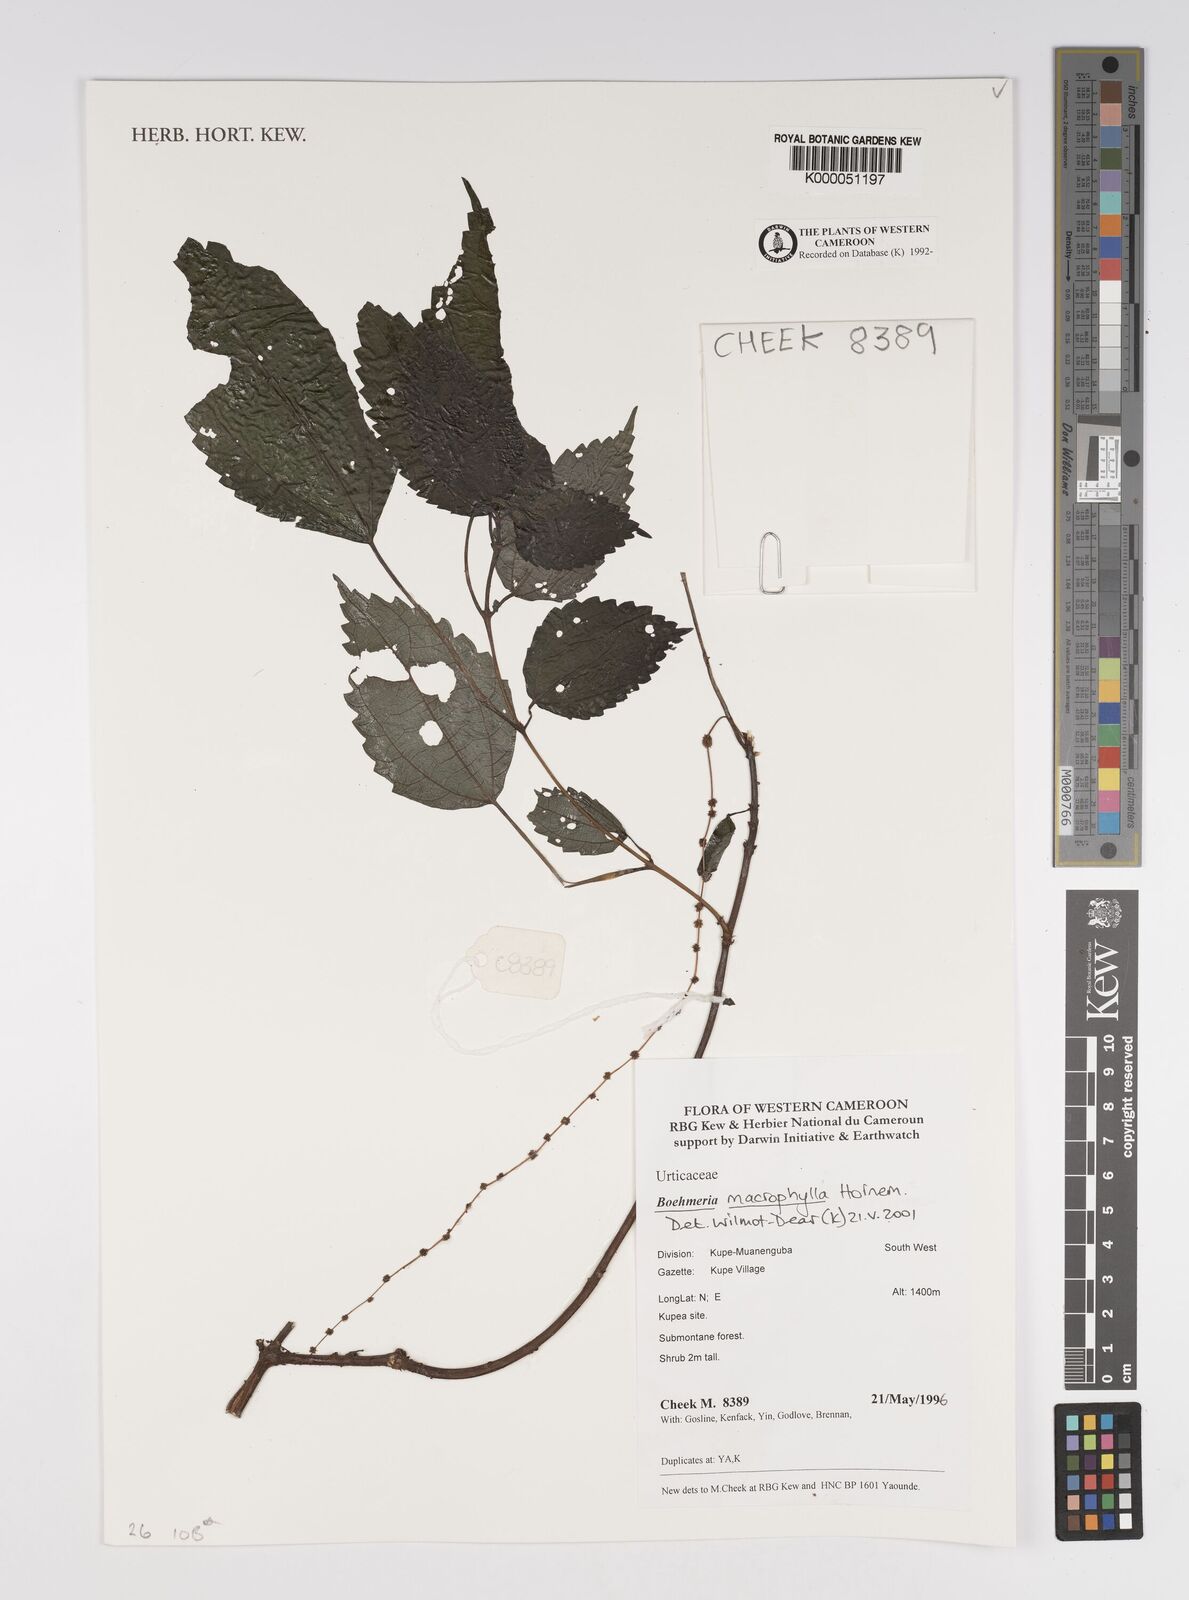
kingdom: Plantae
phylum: Tracheophyta
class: Magnoliopsida
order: Rosales
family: Urticaceae
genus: Boehmeria
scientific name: Boehmeria virgata
